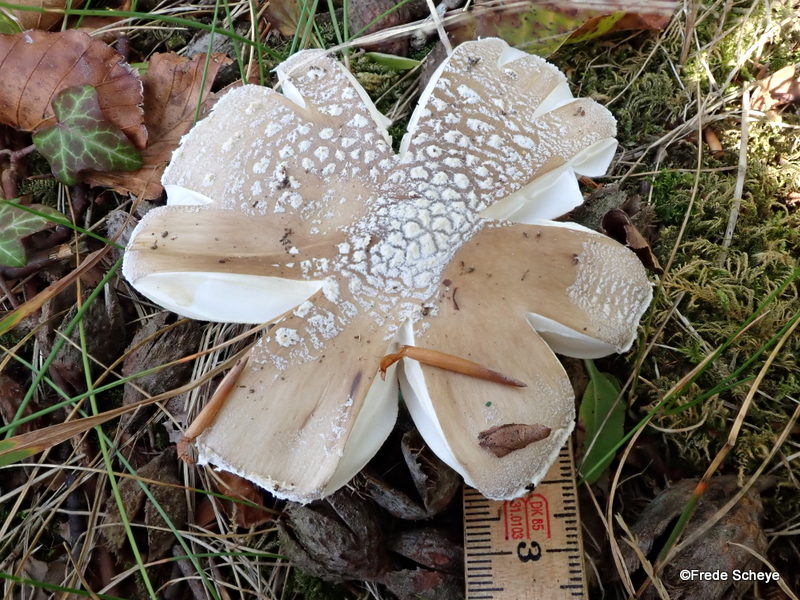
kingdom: Fungi
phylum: Basidiomycota
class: Agaricomycetes
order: Agaricales
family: Amanitaceae
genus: Amanita
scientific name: Amanita
